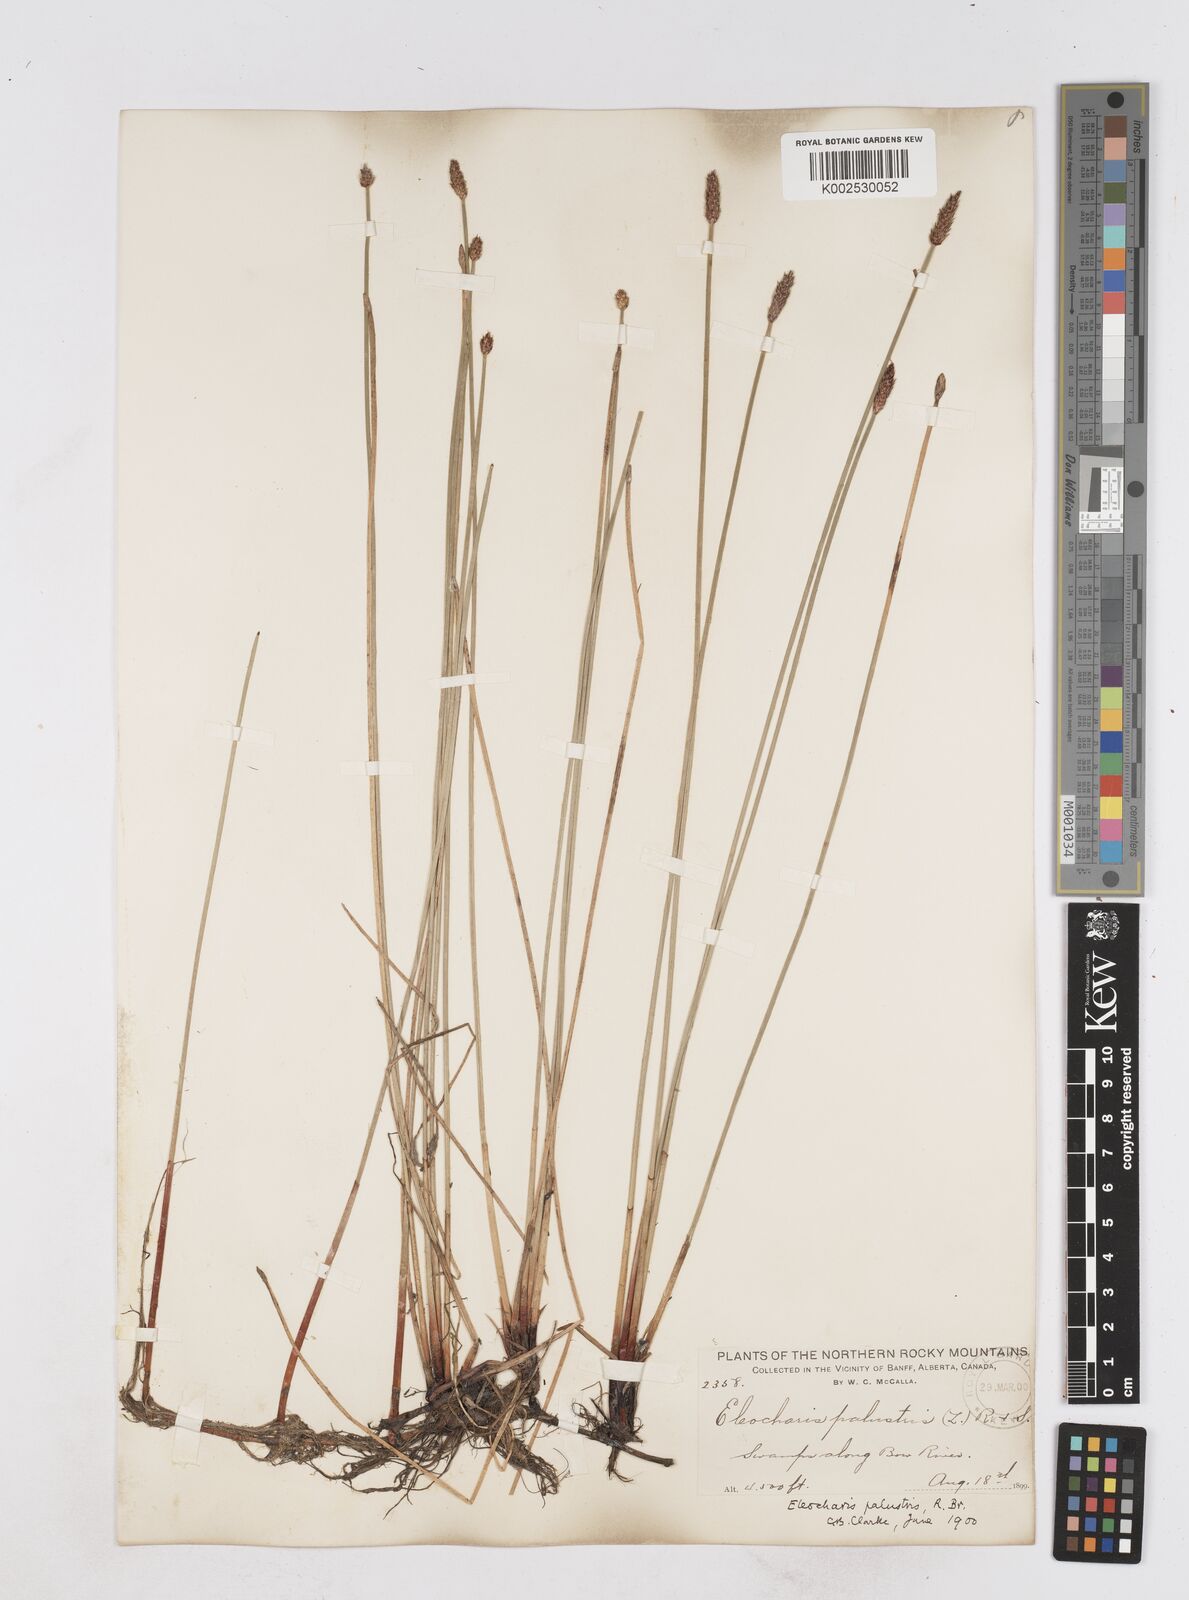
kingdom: Plantae
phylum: Tracheophyta
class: Liliopsida
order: Poales
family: Cyperaceae
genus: Eleocharis
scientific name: Eleocharis palustris
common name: Common spike-rush
